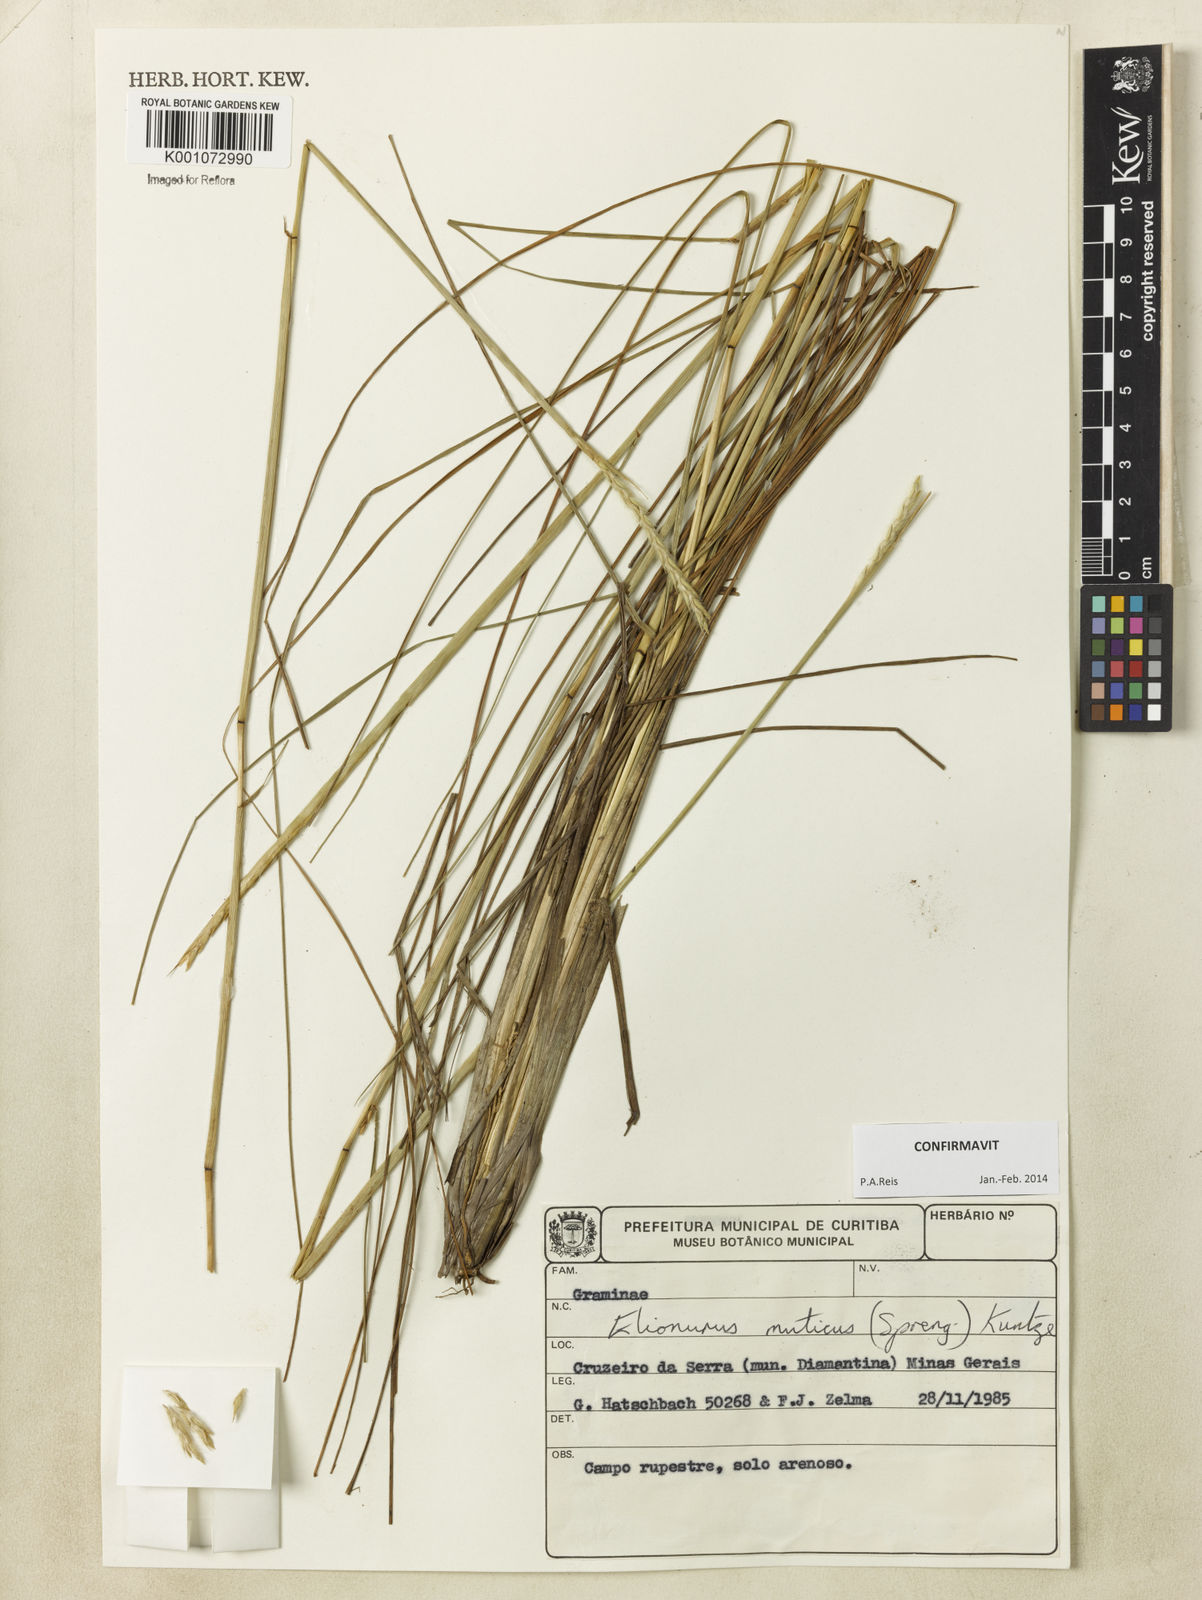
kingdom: Plantae
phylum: Tracheophyta
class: Liliopsida
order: Poales
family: Poaceae
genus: Elionurus
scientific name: Elionurus muticus
